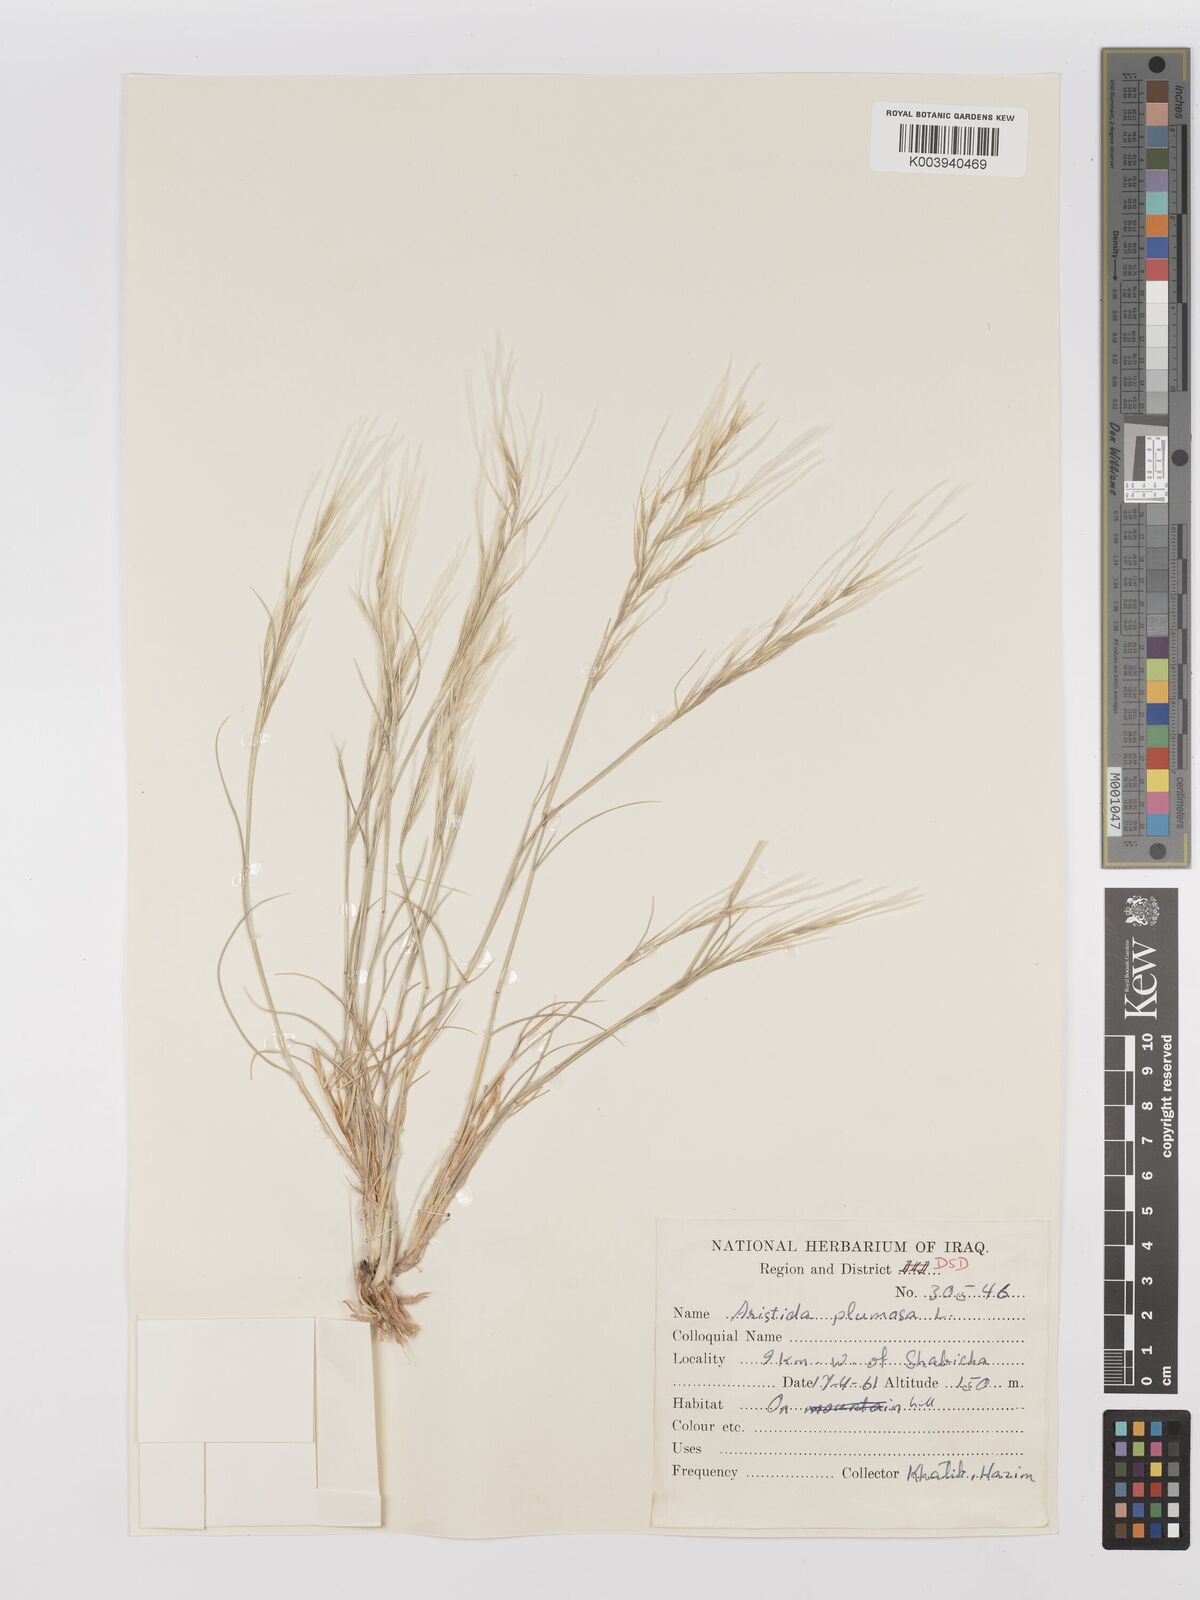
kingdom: Plantae
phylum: Tracheophyta
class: Liliopsida
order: Poales
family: Poaceae
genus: Stipagrostis
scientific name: Stipagrostis plumosa
